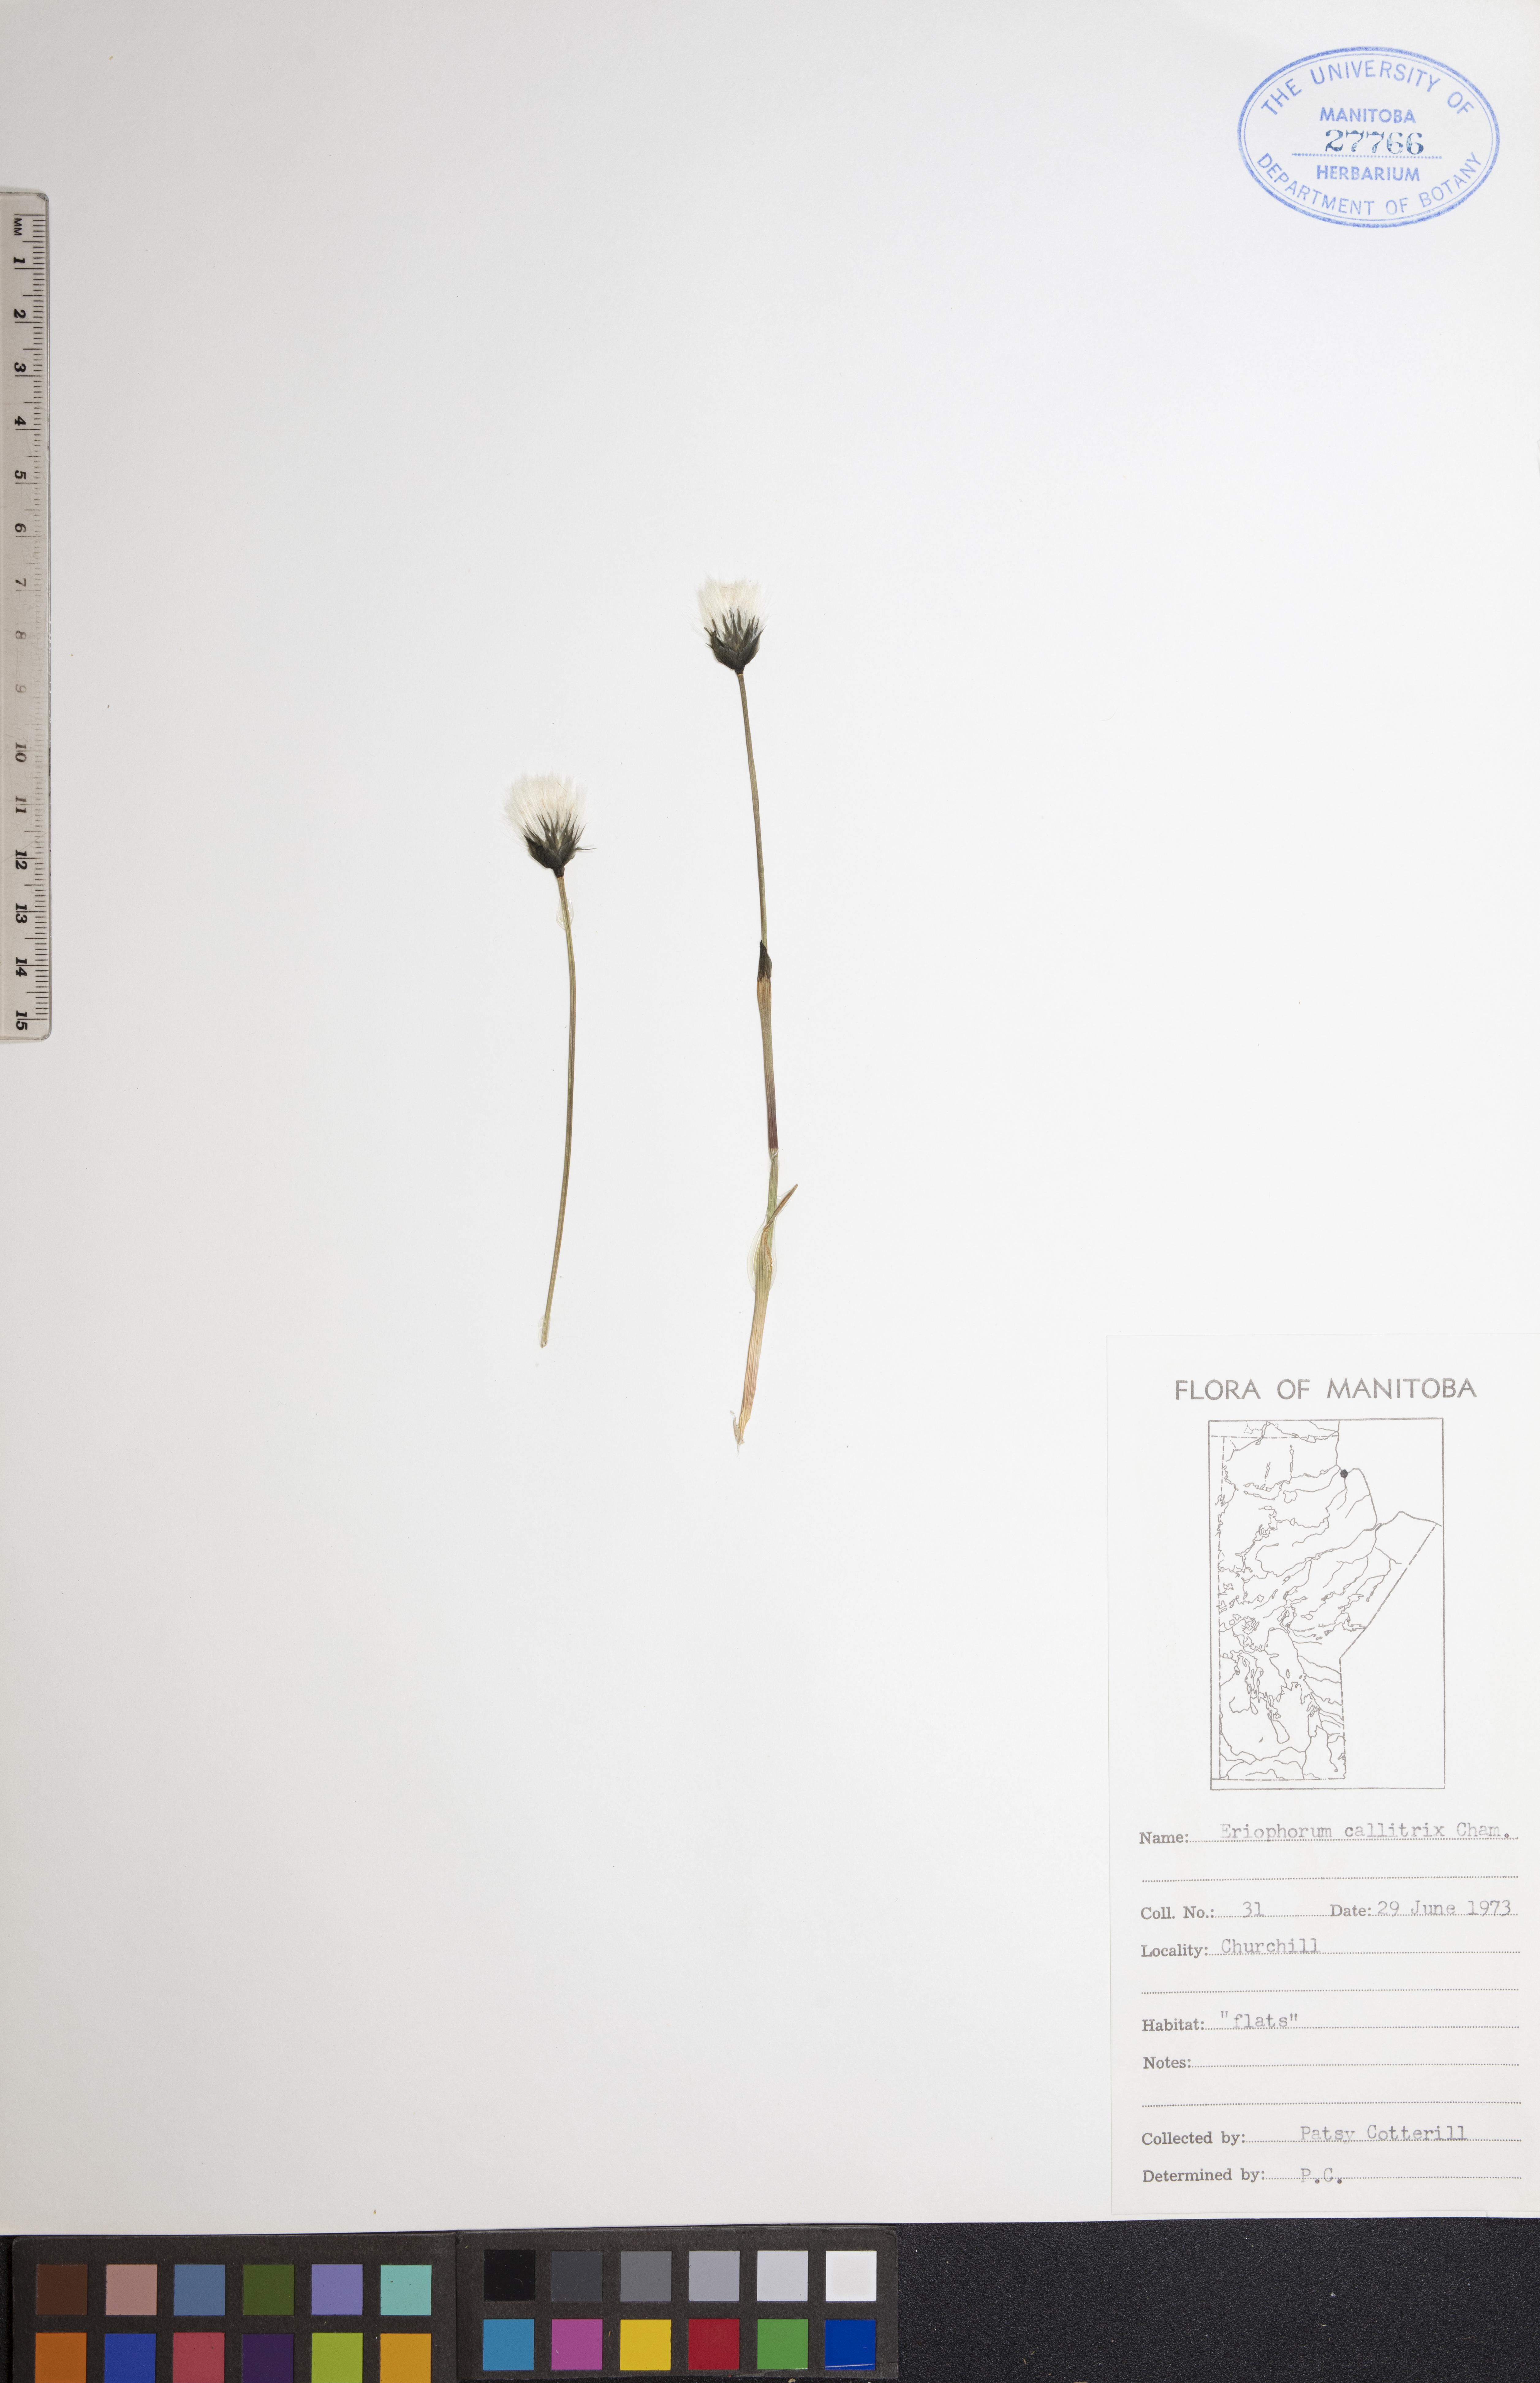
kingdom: Plantae
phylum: Tracheophyta
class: Liliopsida
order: Poales
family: Cyperaceae
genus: Eriophorum
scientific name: Eriophorum callitrix
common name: Arctic cottongrass
